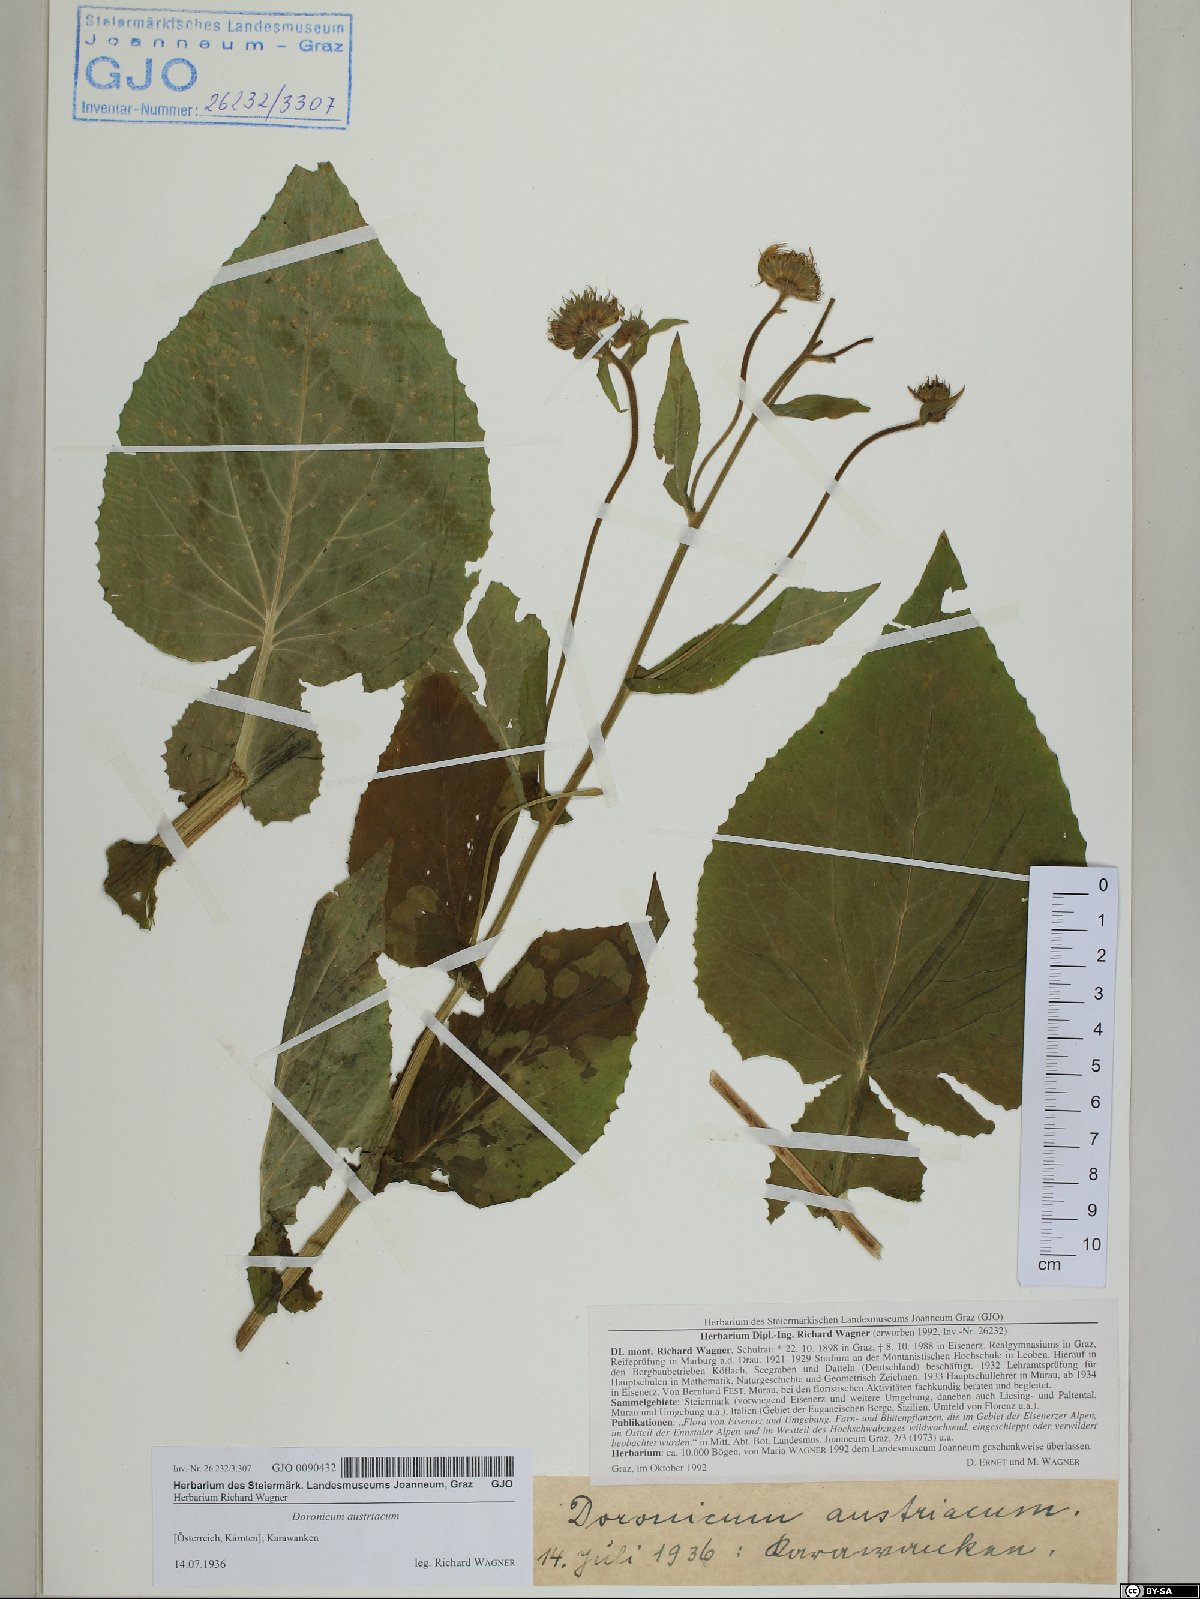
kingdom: Plantae
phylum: Tracheophyta
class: Magnoliopsida
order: Asterales
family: Asteraceae
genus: Doronicum
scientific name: Doronicum austriacum
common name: Austrian leopard's-bane
